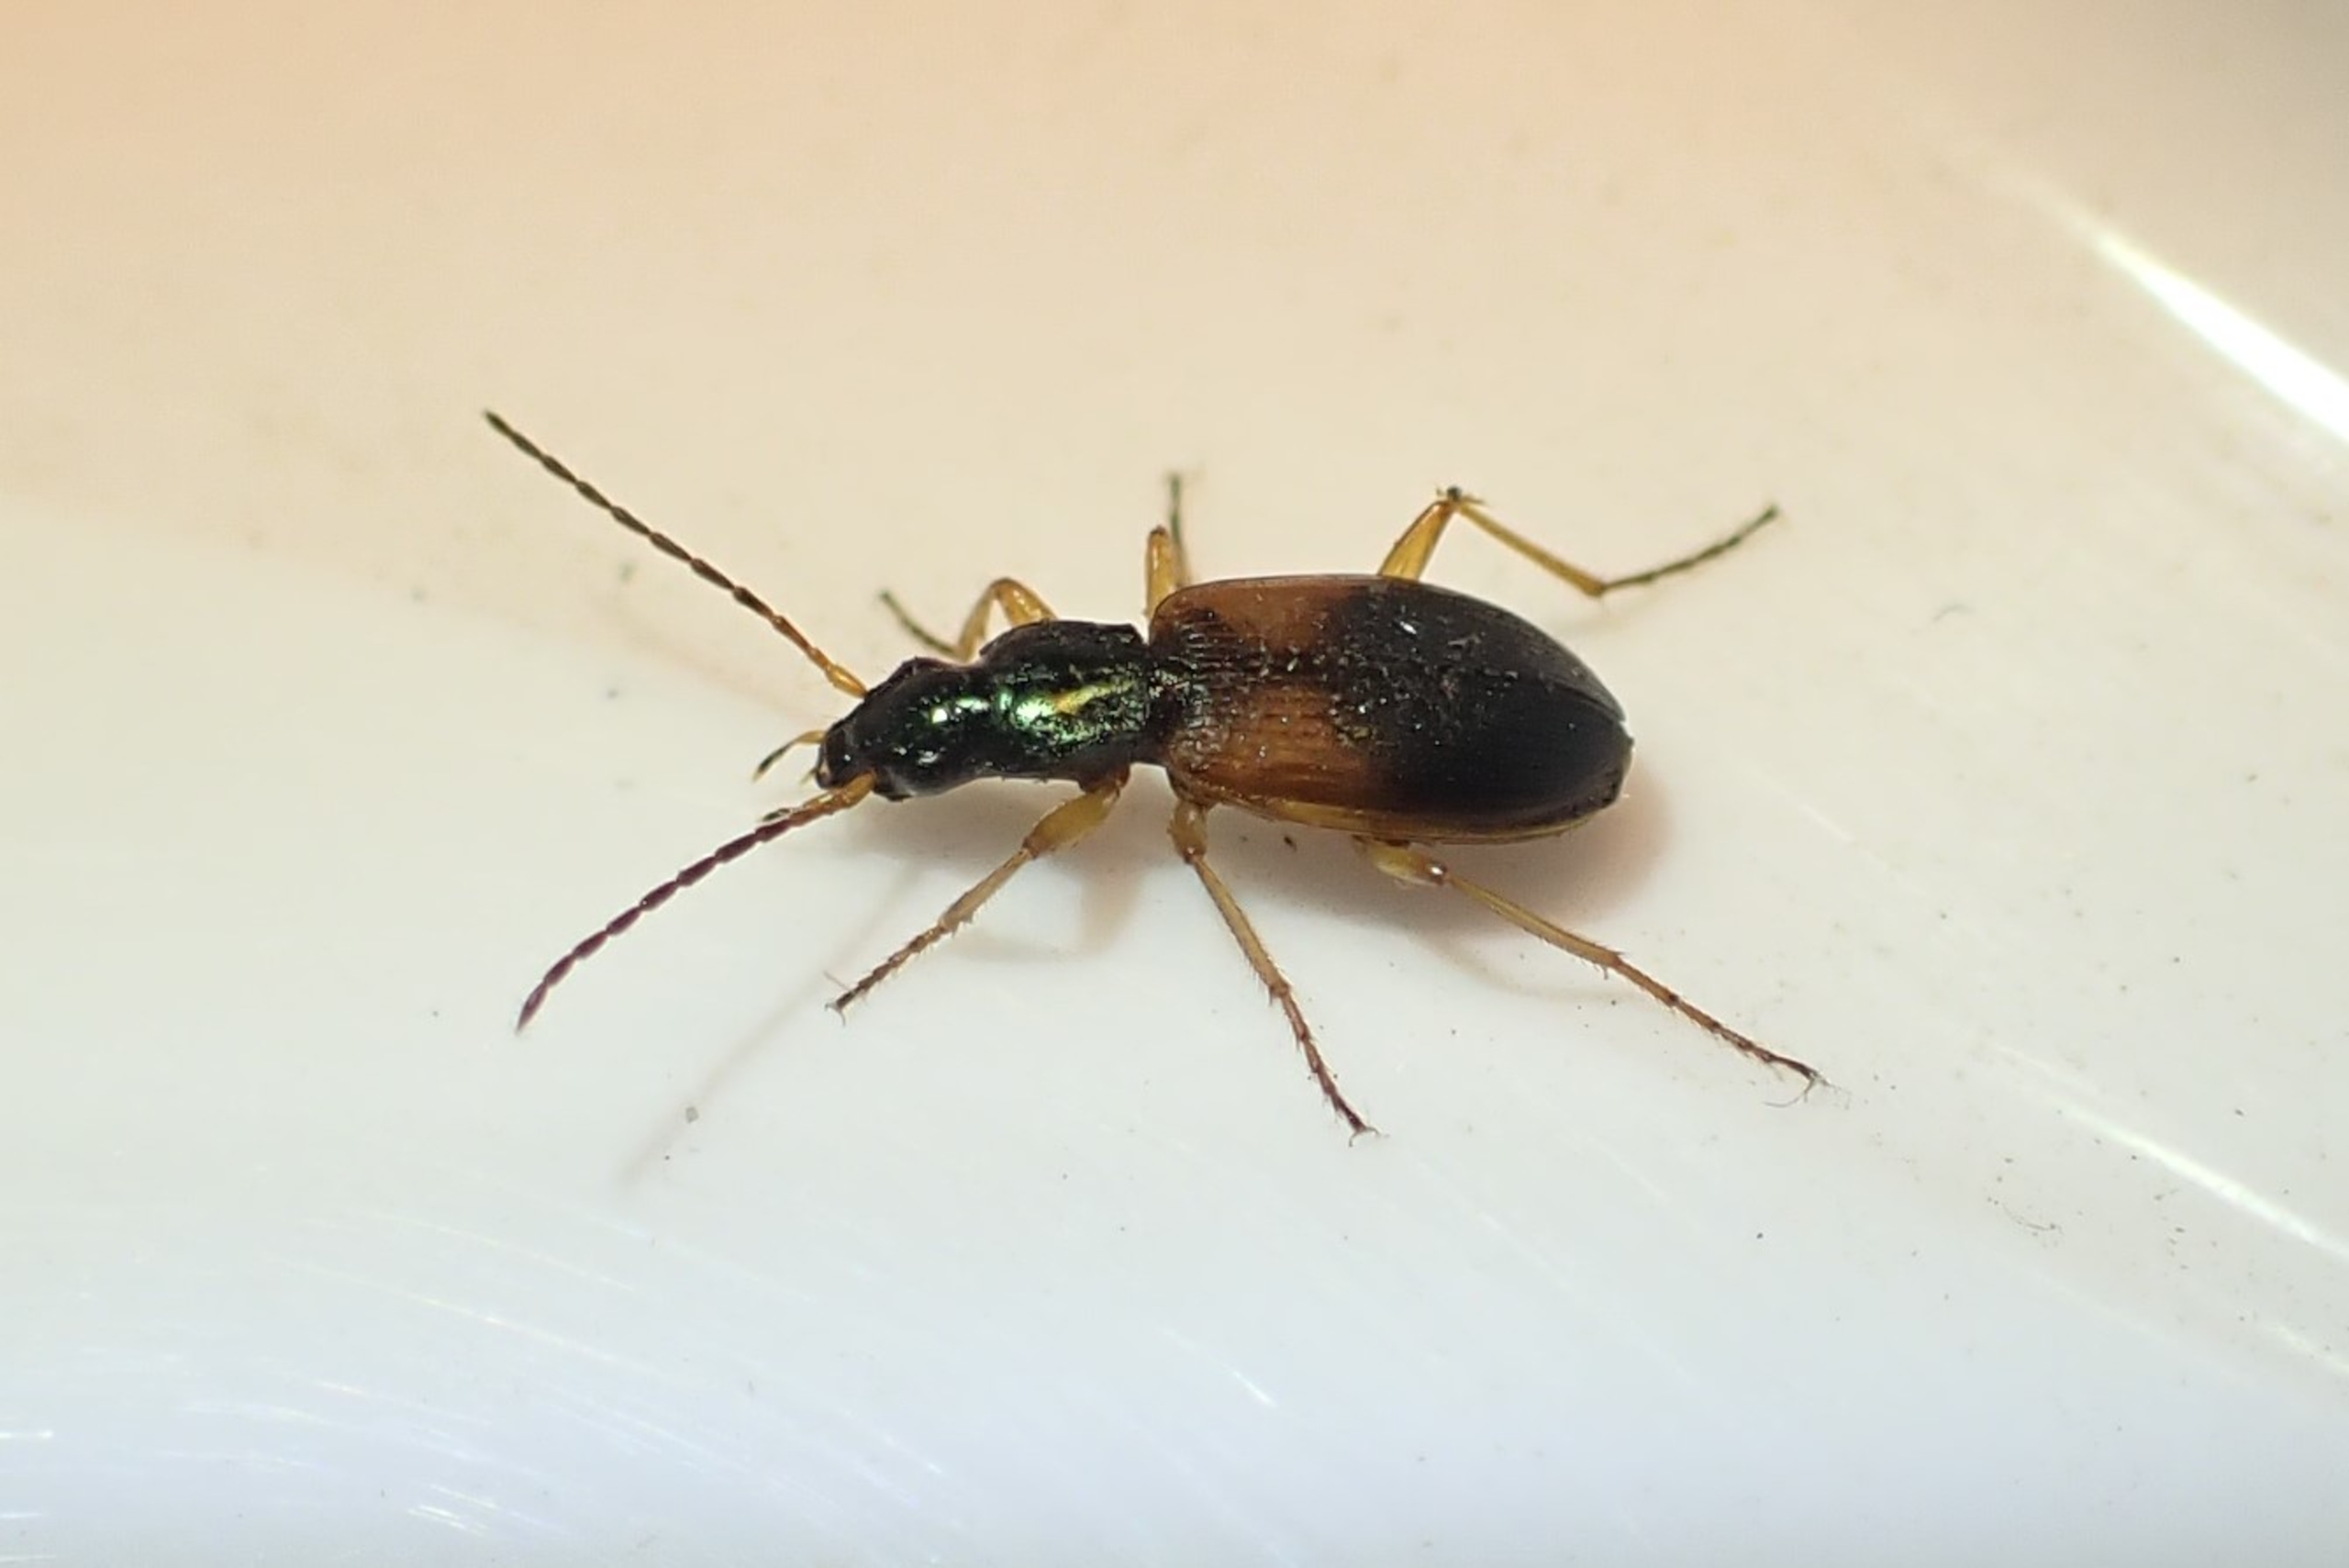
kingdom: Animalia
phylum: Arthropoda
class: Insecta
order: Coleoptera
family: Carabidae
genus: Anchomenus
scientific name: Anchomenus dorsalis
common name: Spraglet kvikløber
